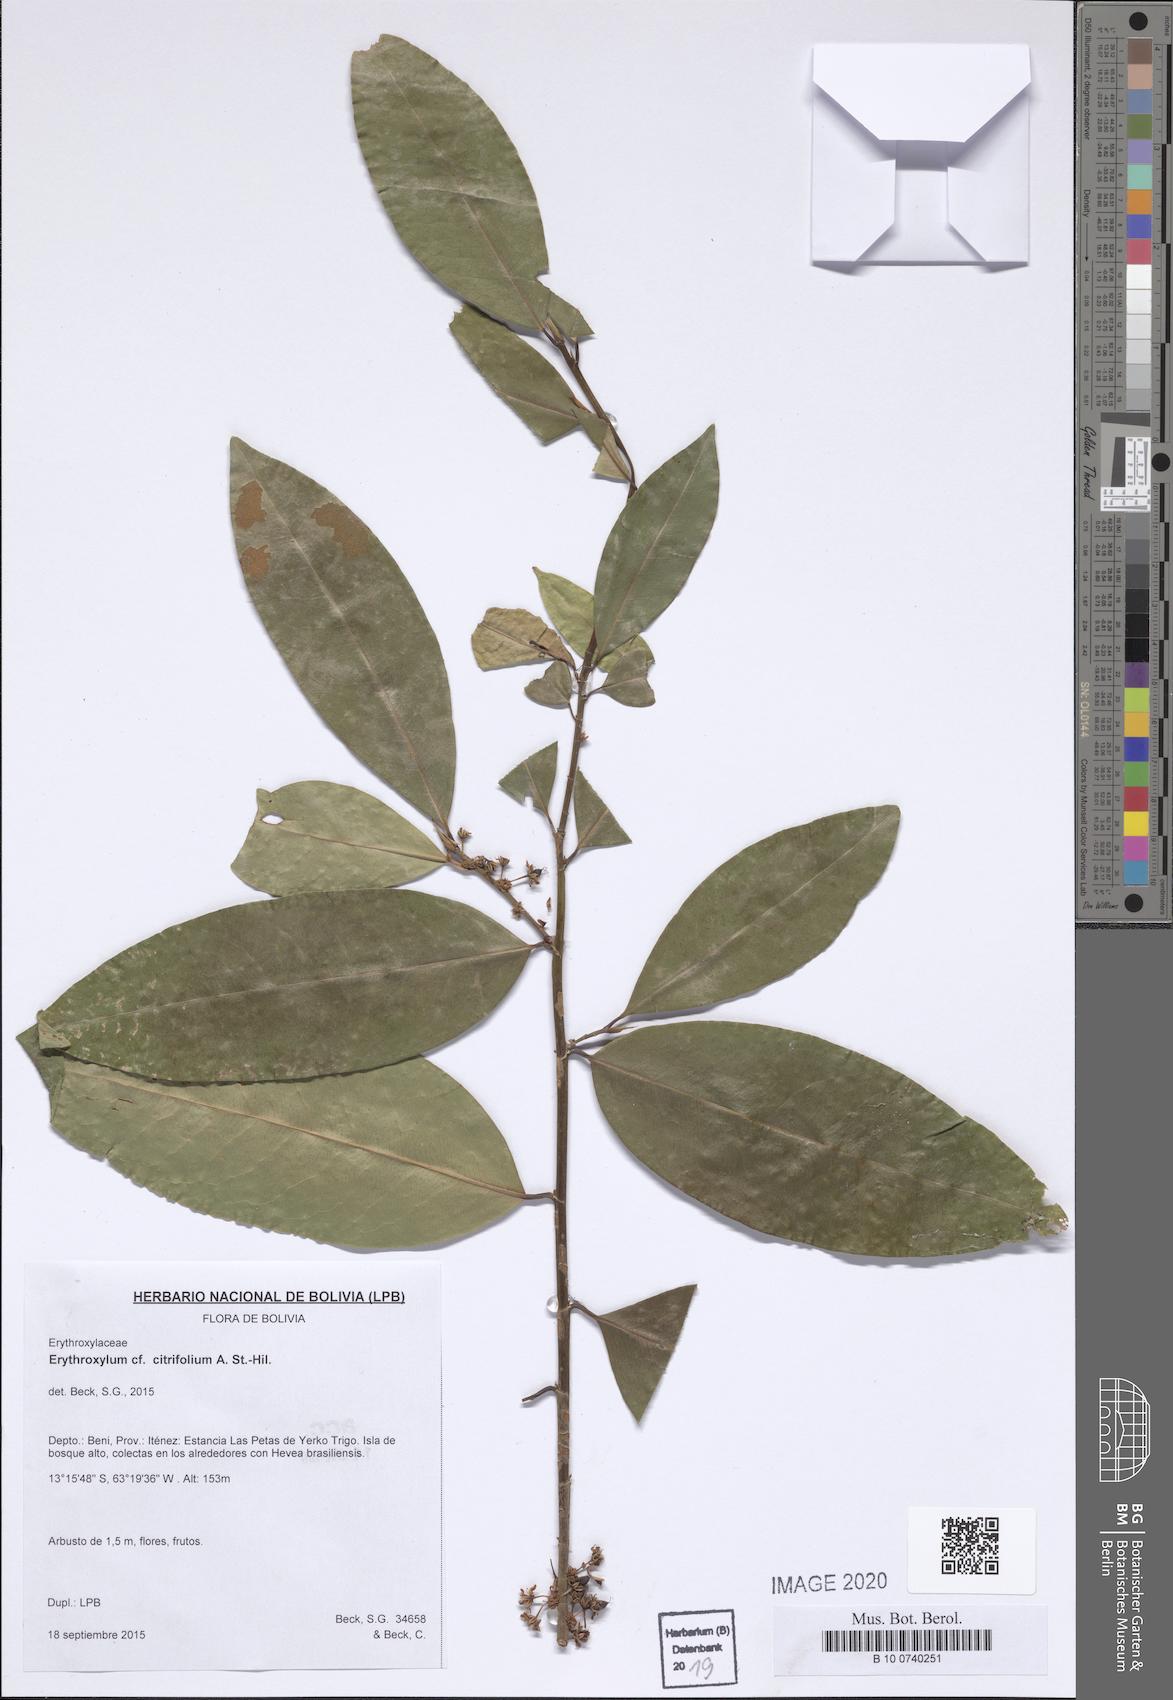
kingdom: Plantae
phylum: Tracheophyta
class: Magnoliopsida
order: Malpighiales
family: Erythroxylaceae
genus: Erythroxylum
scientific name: Erythroxylum citrifolium
